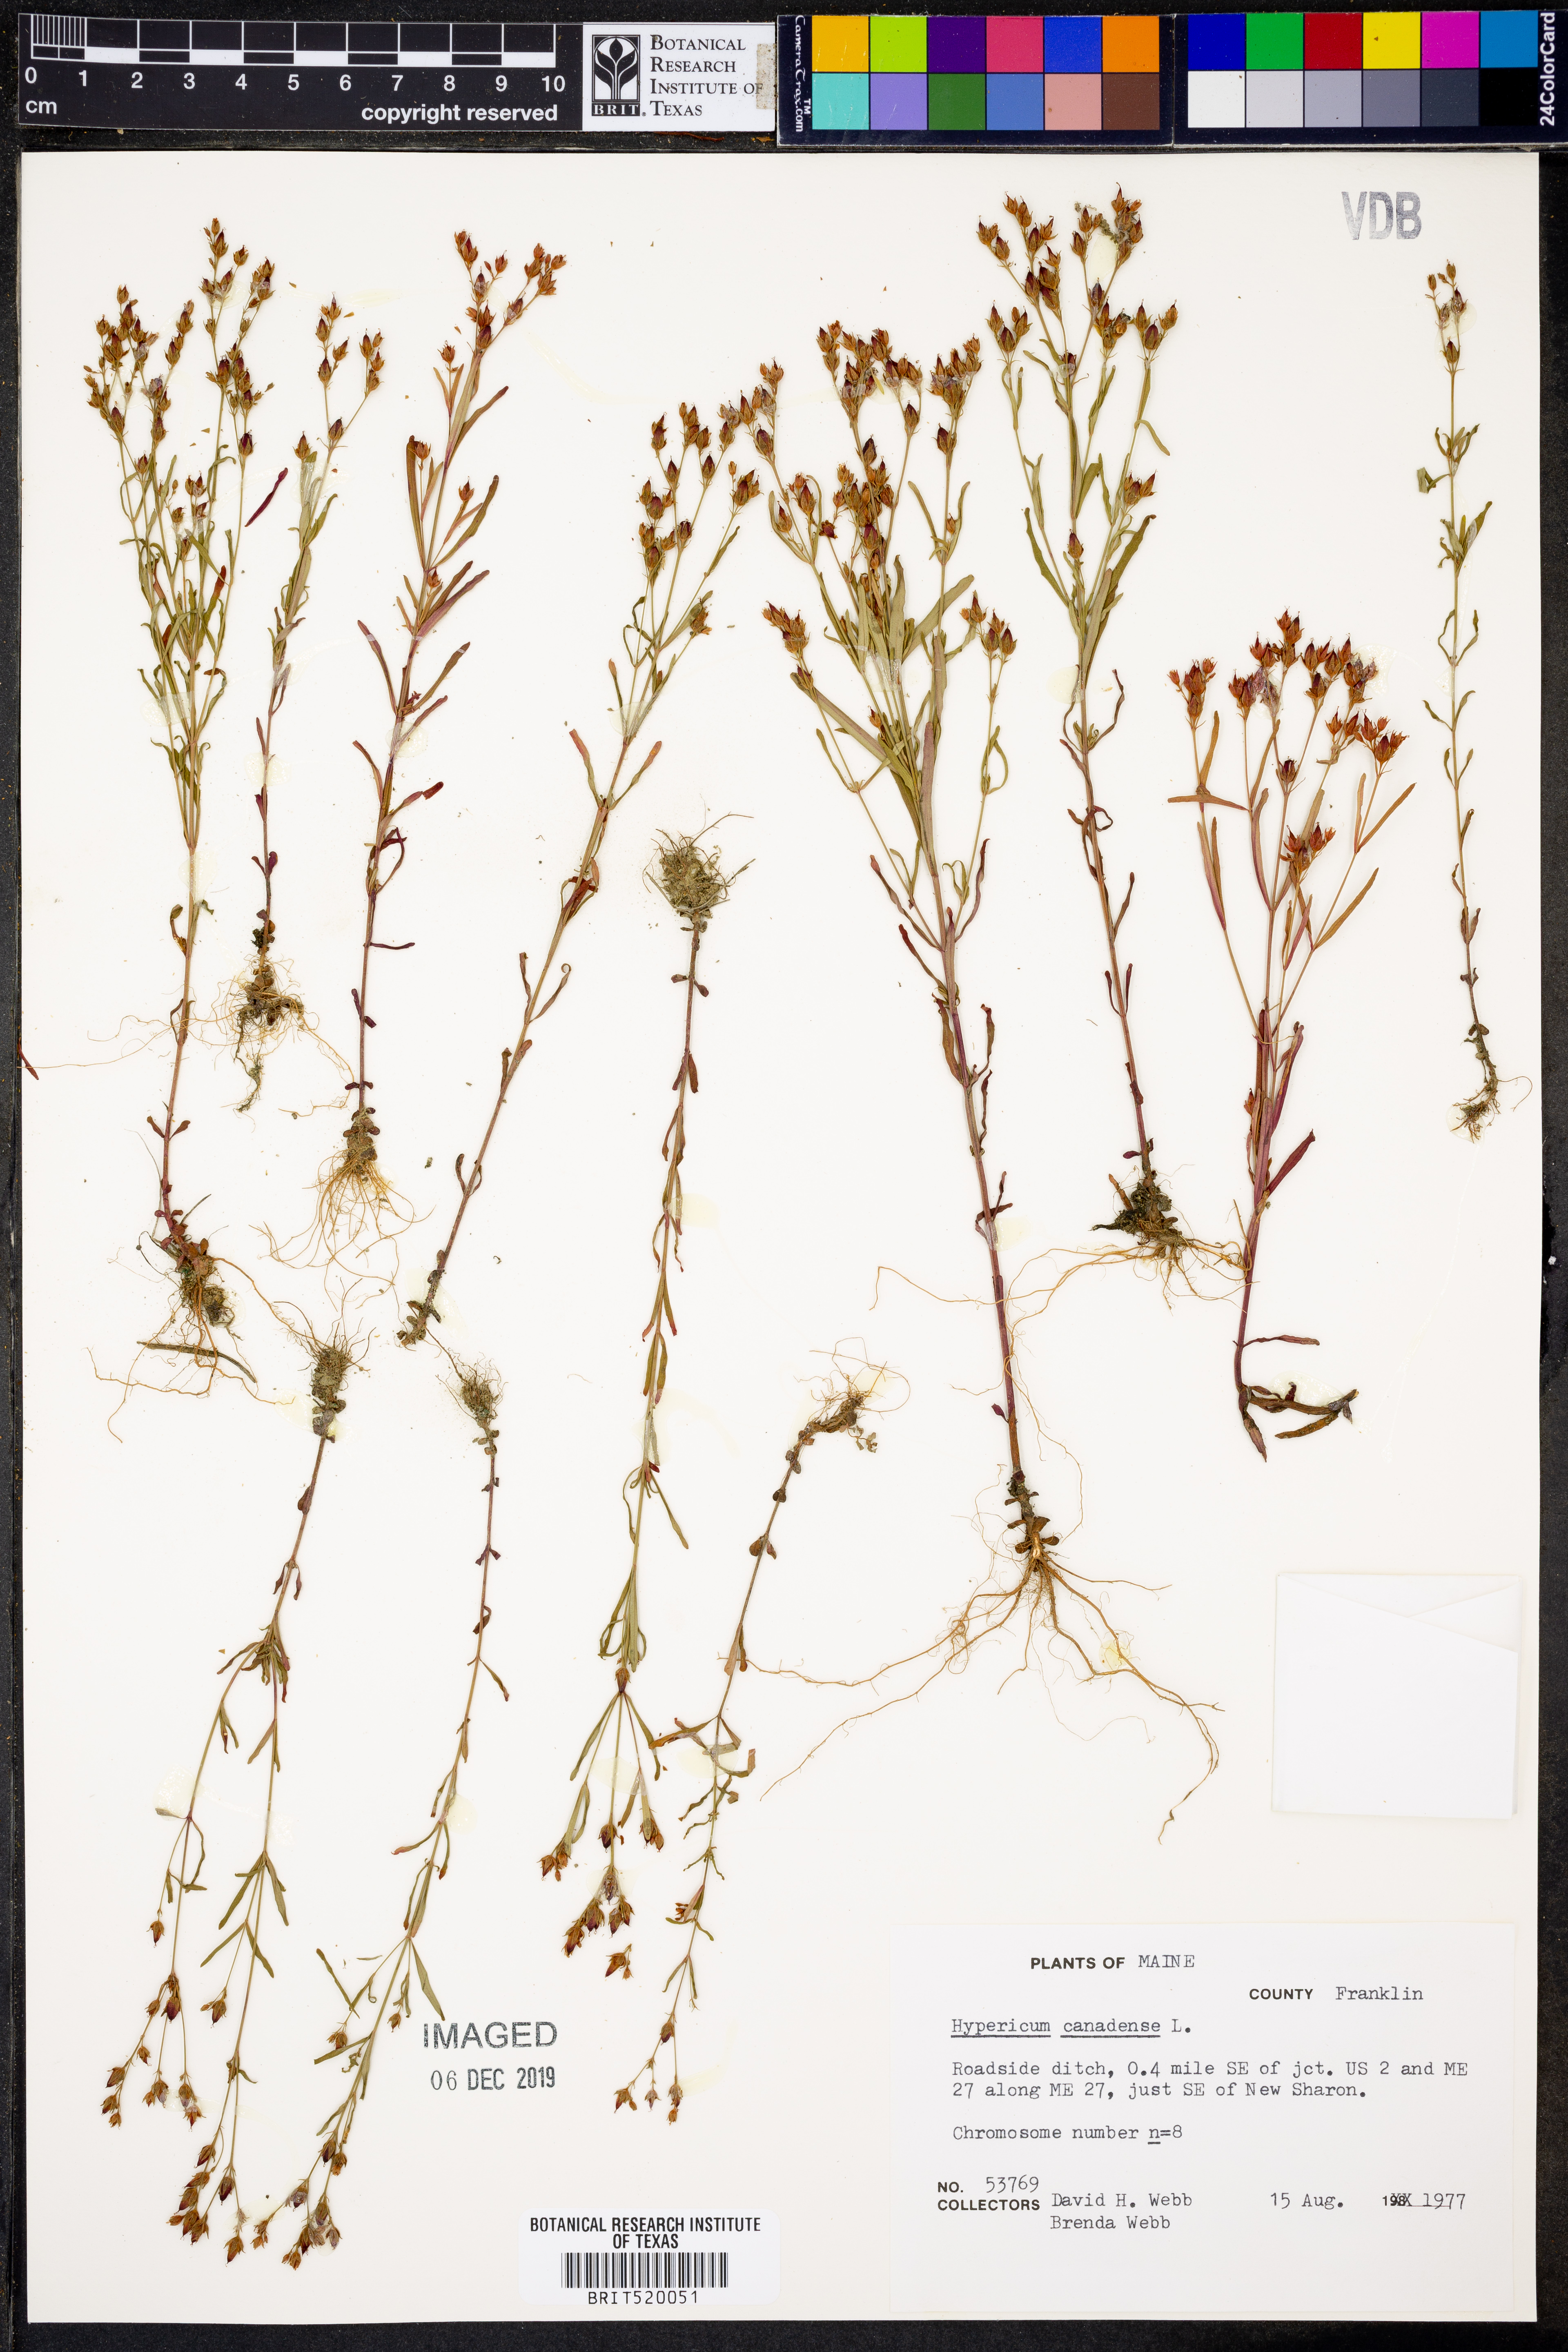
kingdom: Plantae
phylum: Tracheophyta
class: Magnoliopsida
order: Malpighiales
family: Hypericaceae
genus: Hypericum
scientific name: Hypericum canadense
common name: Irish st. john's-wort
